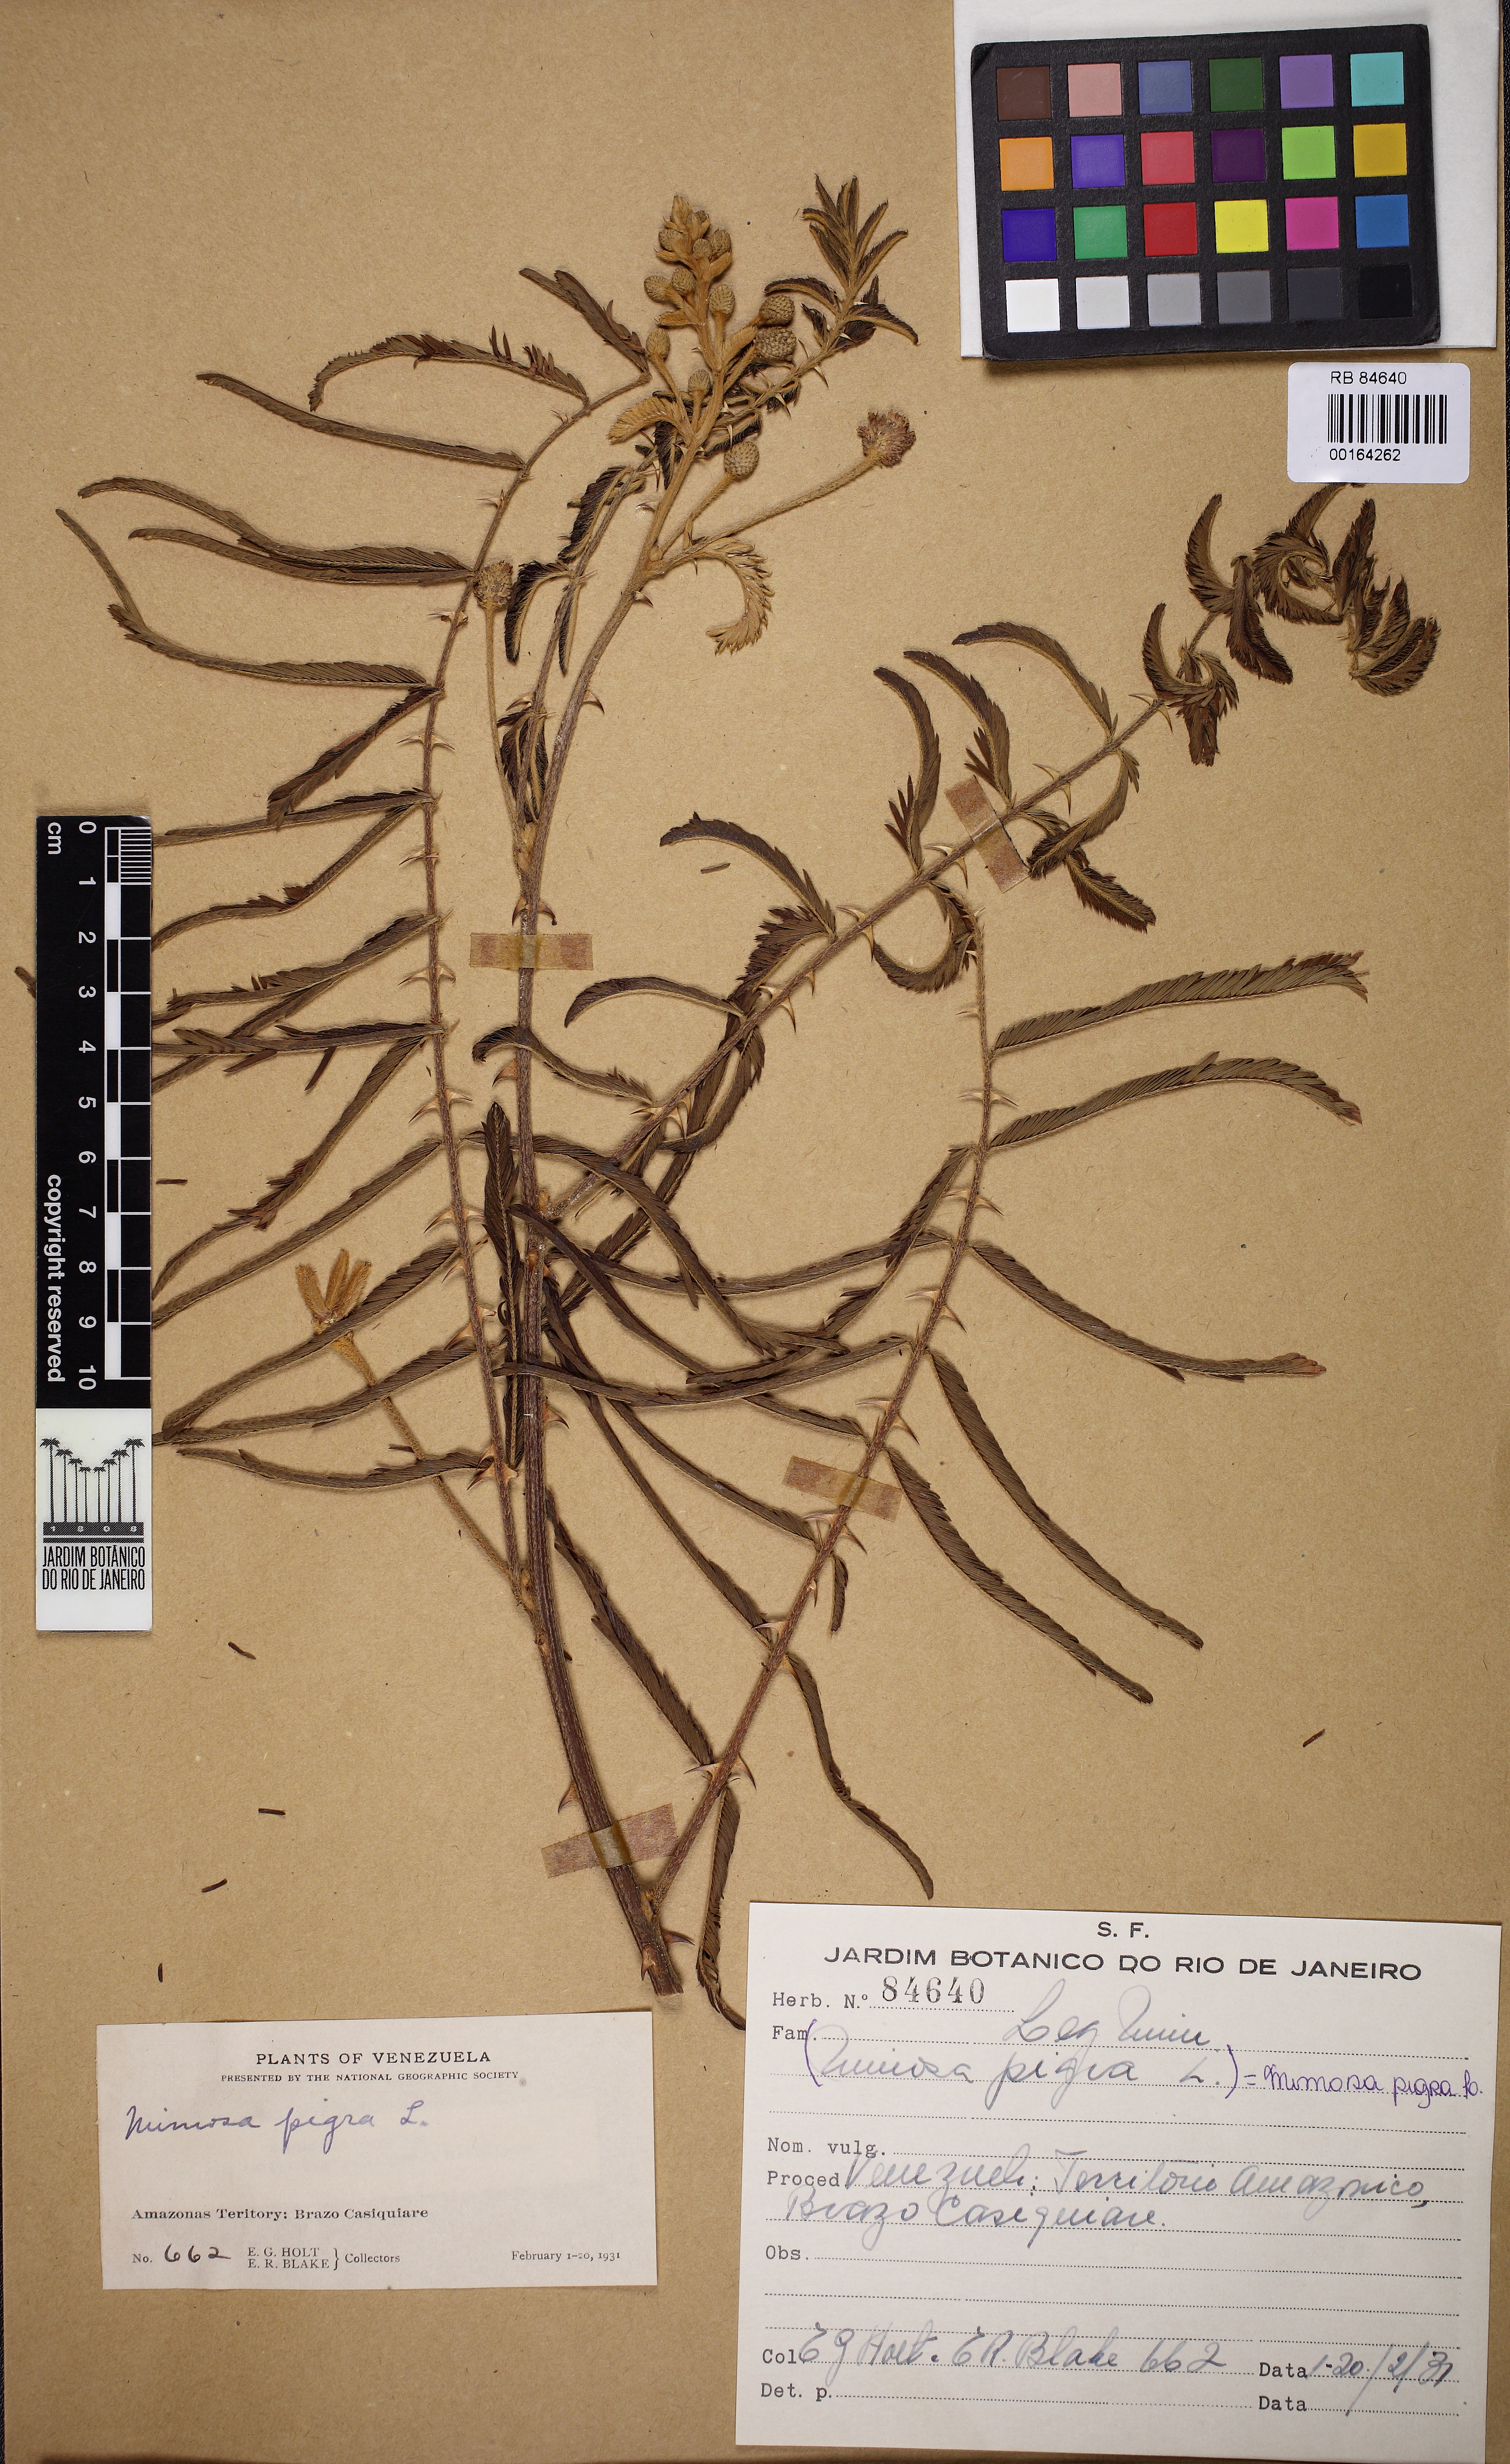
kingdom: Plantae
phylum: Tracheophyta
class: Magnoliopsida
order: Fabales
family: Fabaceae
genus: Mimosa
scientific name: Mimosa pigra
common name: Black mimosa
